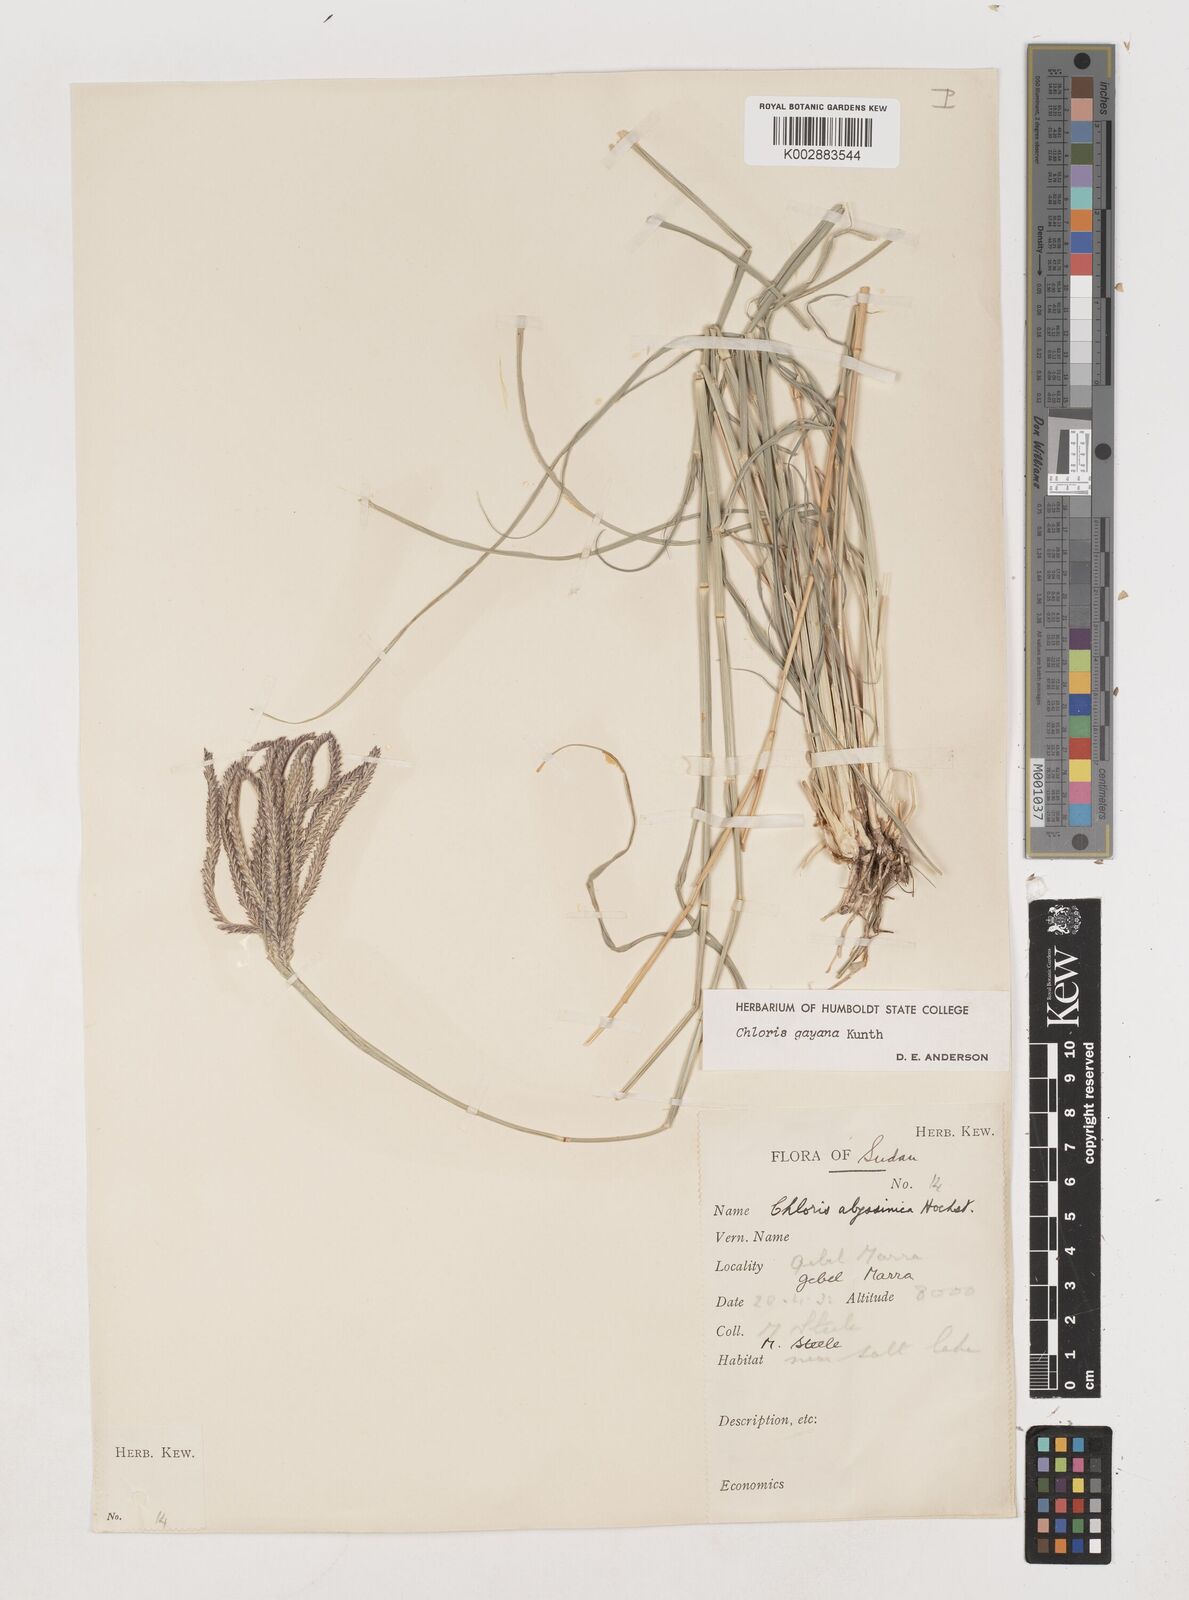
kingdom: Plantae
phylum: Tracheophyta
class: Liliopsida
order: Poales
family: Poaceae
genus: Chloris
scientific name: Chloris gayana
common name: Rhodes grass
